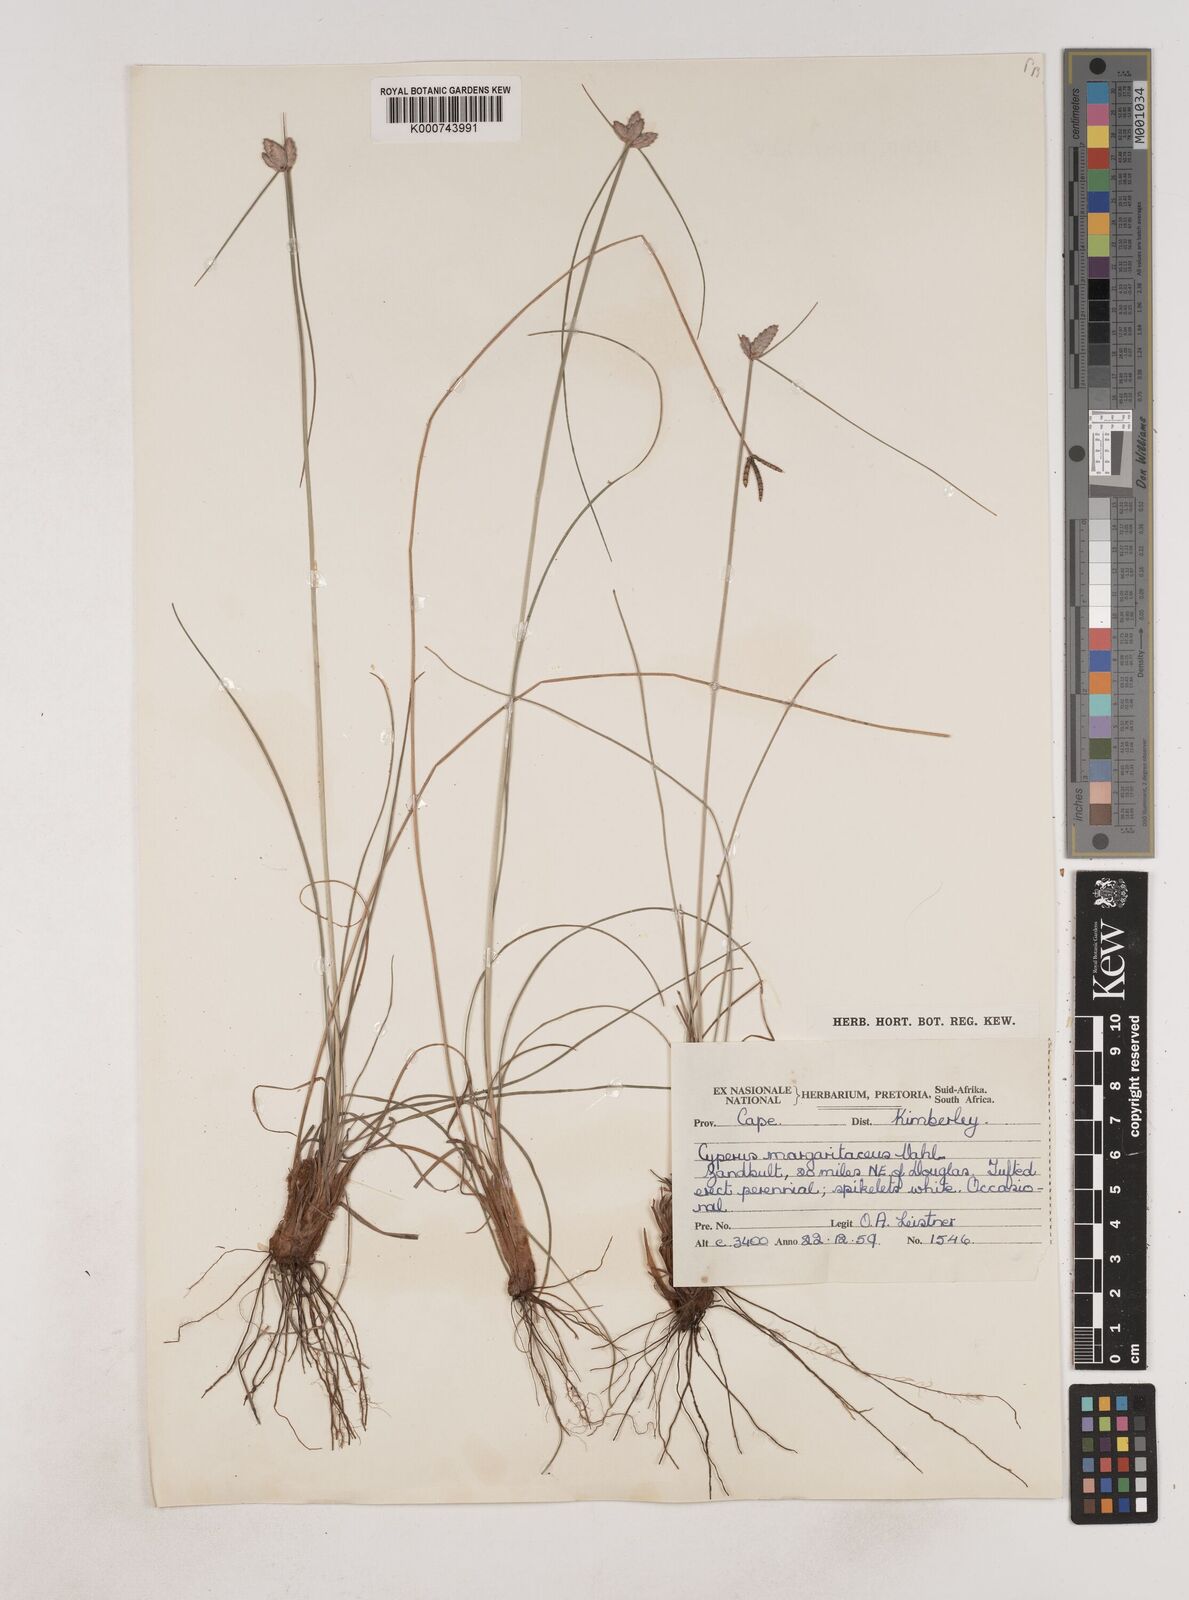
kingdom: Plantae
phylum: Tracheophyta
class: Liliopsida
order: Poales
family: Cyperaceae
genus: Cyperus
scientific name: Cyperus margaritaceus
